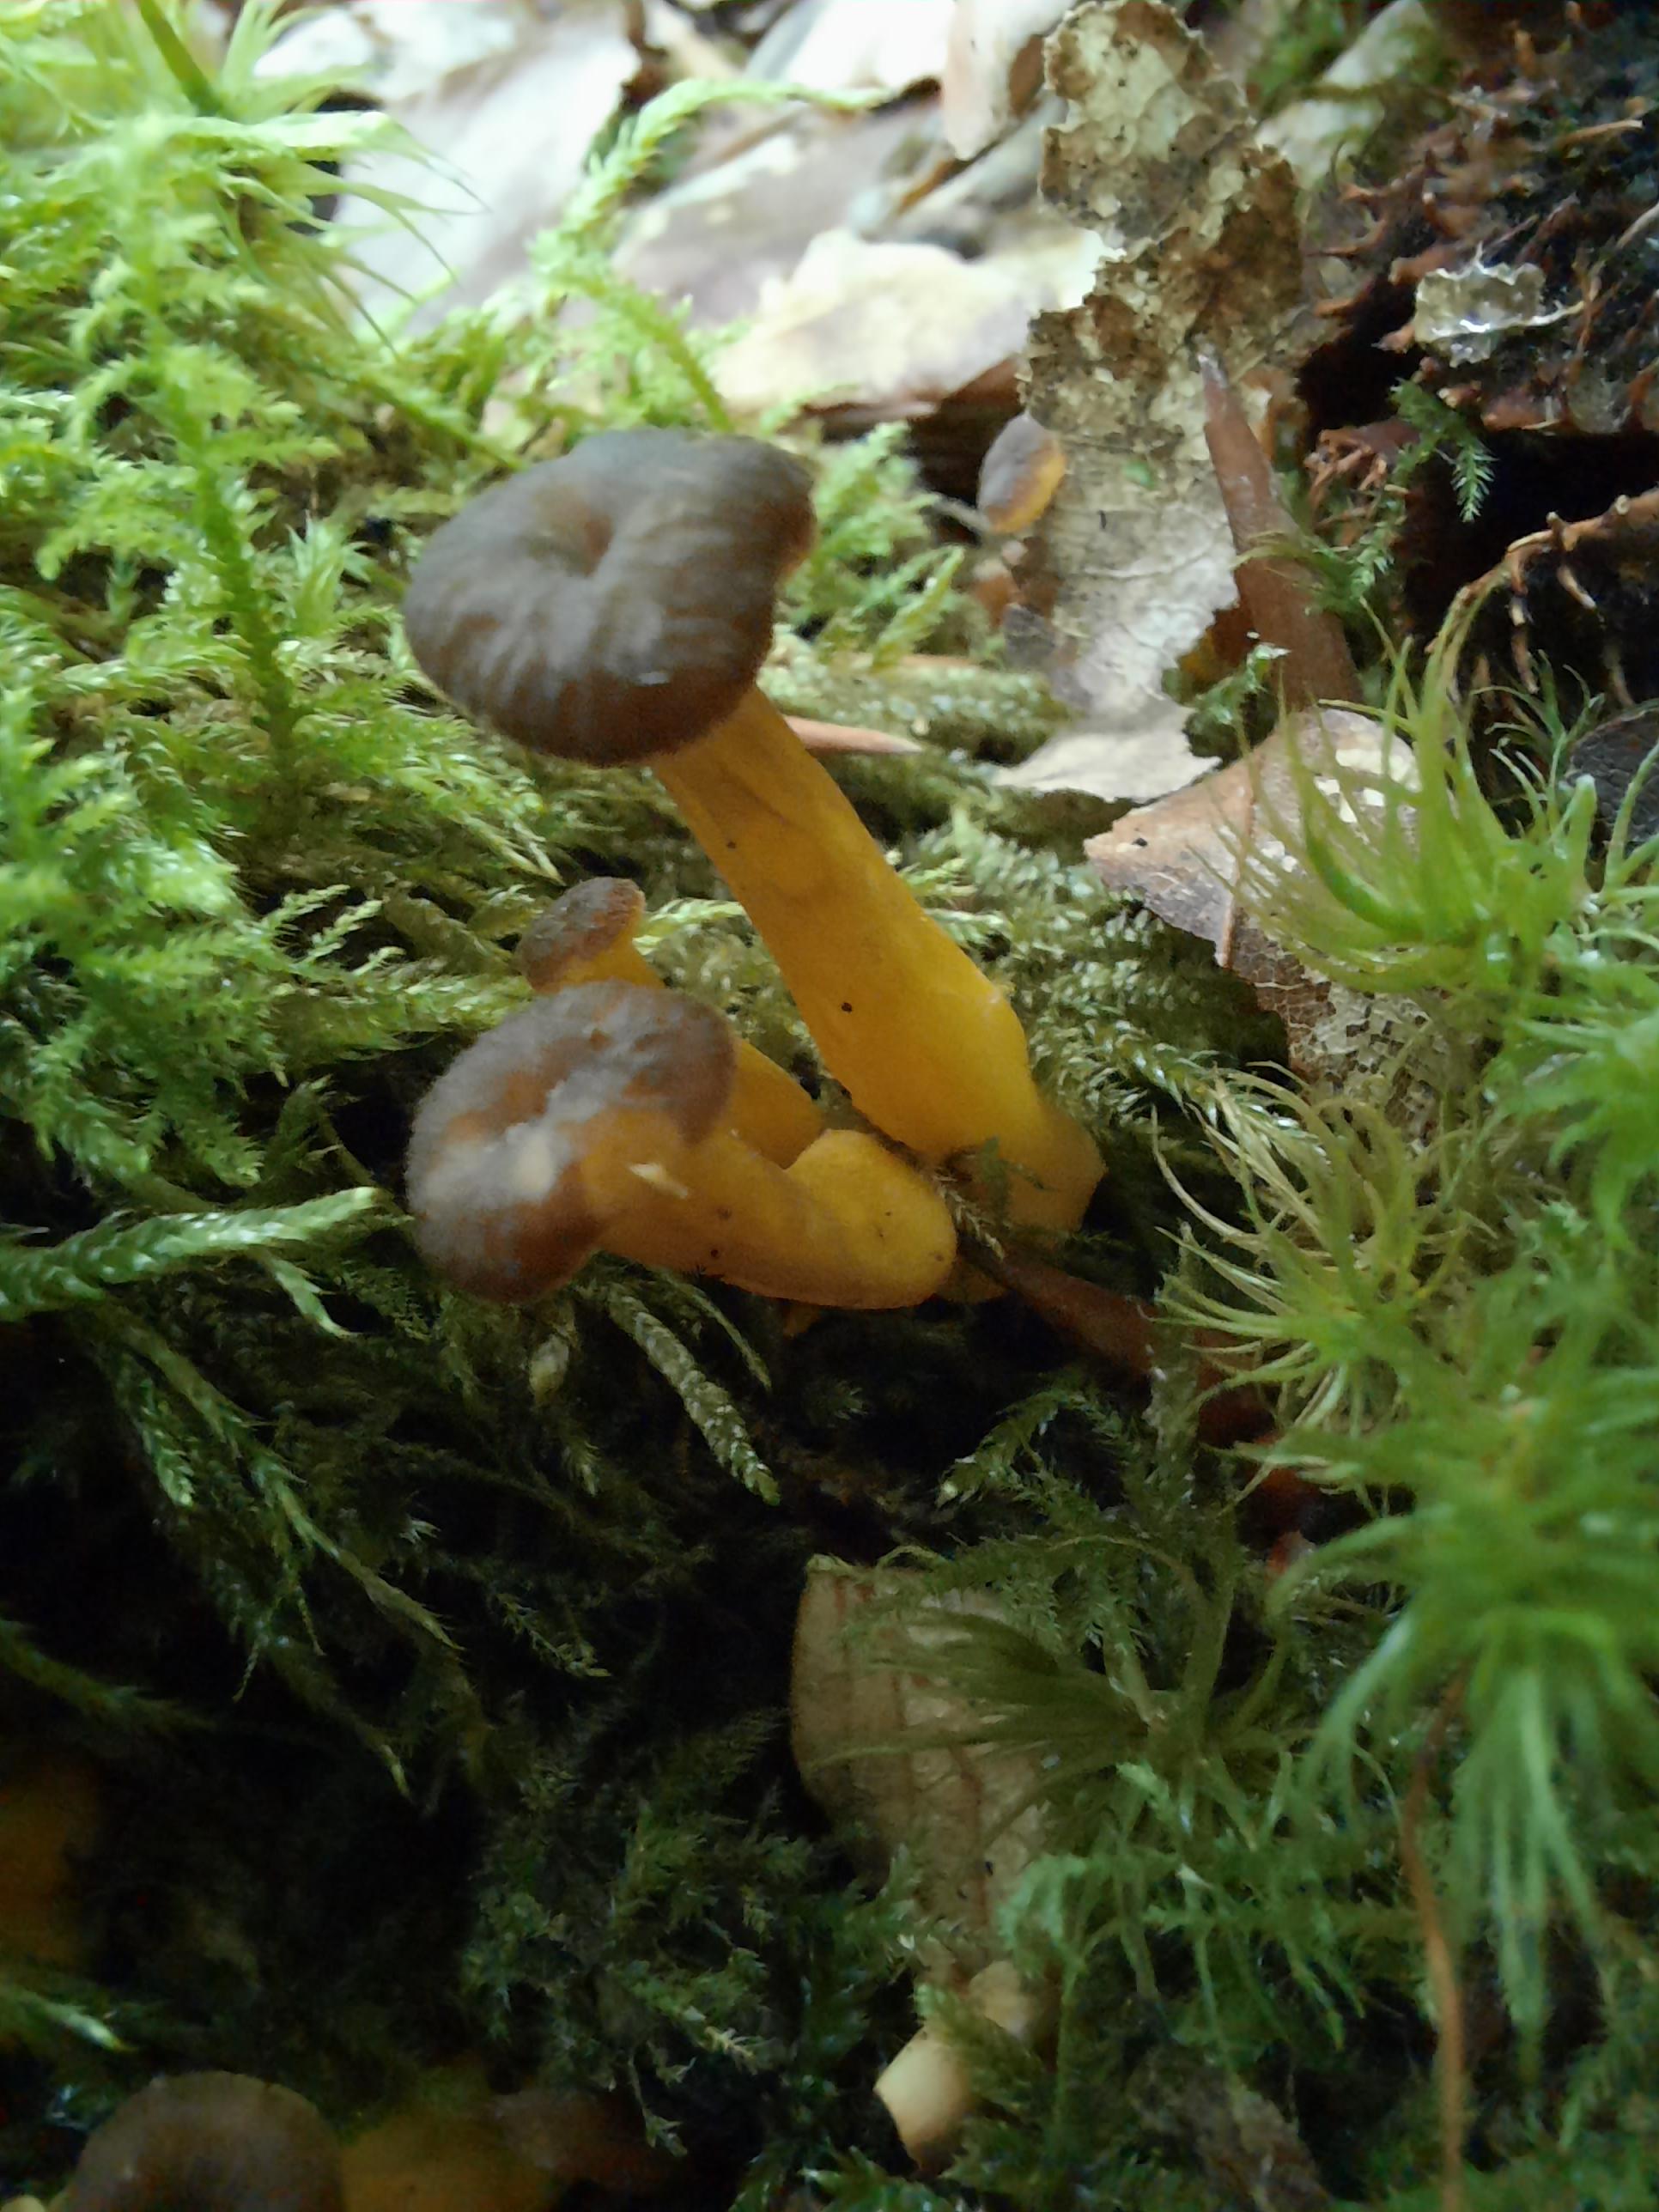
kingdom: Fungi
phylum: Basidiomycota
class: Agaricomycetes
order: Cantharellales
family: Hydnaceae
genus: Craterellus
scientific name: Craterellus tubaeformis
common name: tragt-kantarel
